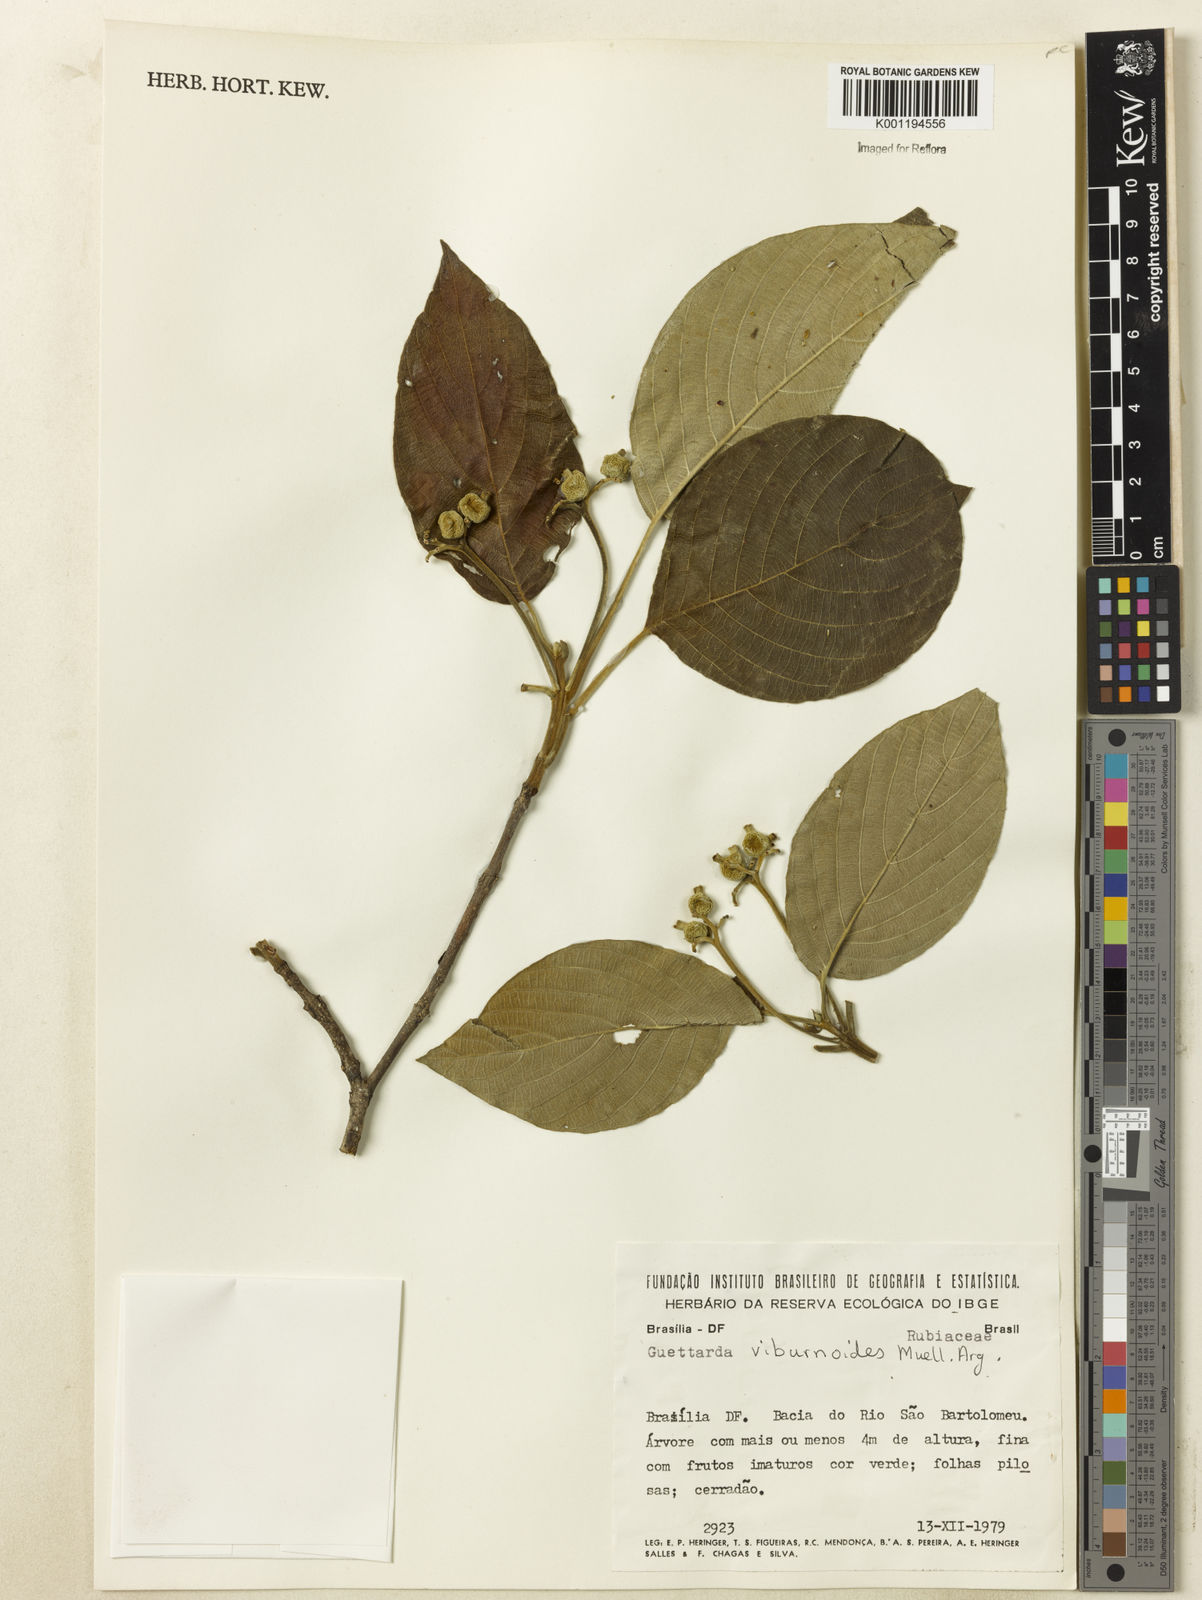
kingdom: Plantae
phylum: Tracheophyta
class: Magnoliopsida
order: Gentianales
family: Rubiaceae
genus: Guettarda
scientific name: Guettarda viburnoides
